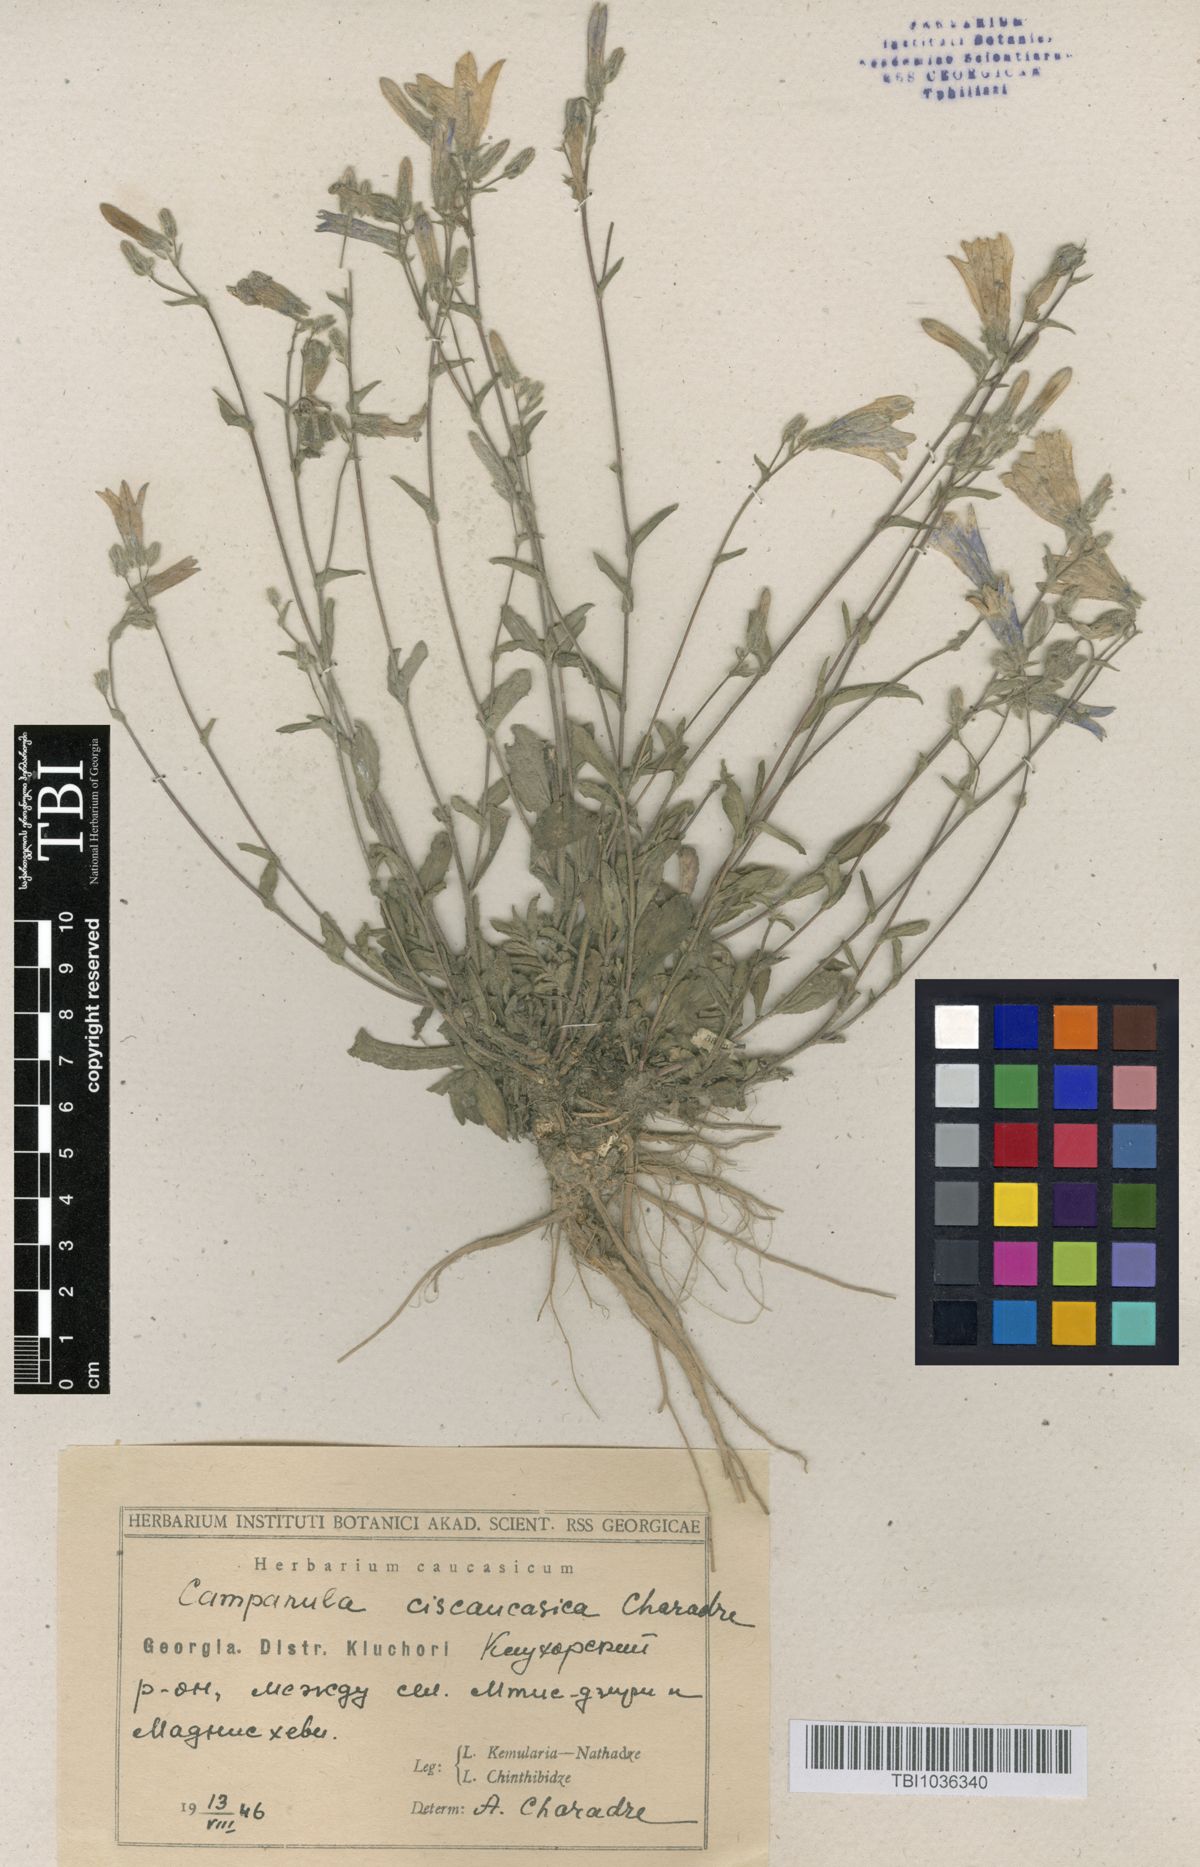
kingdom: Plantae
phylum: Tracheophyta
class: Magnoliopsida
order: Asterales
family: Campanulaceae
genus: Campanula
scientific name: Campanula sibirica
